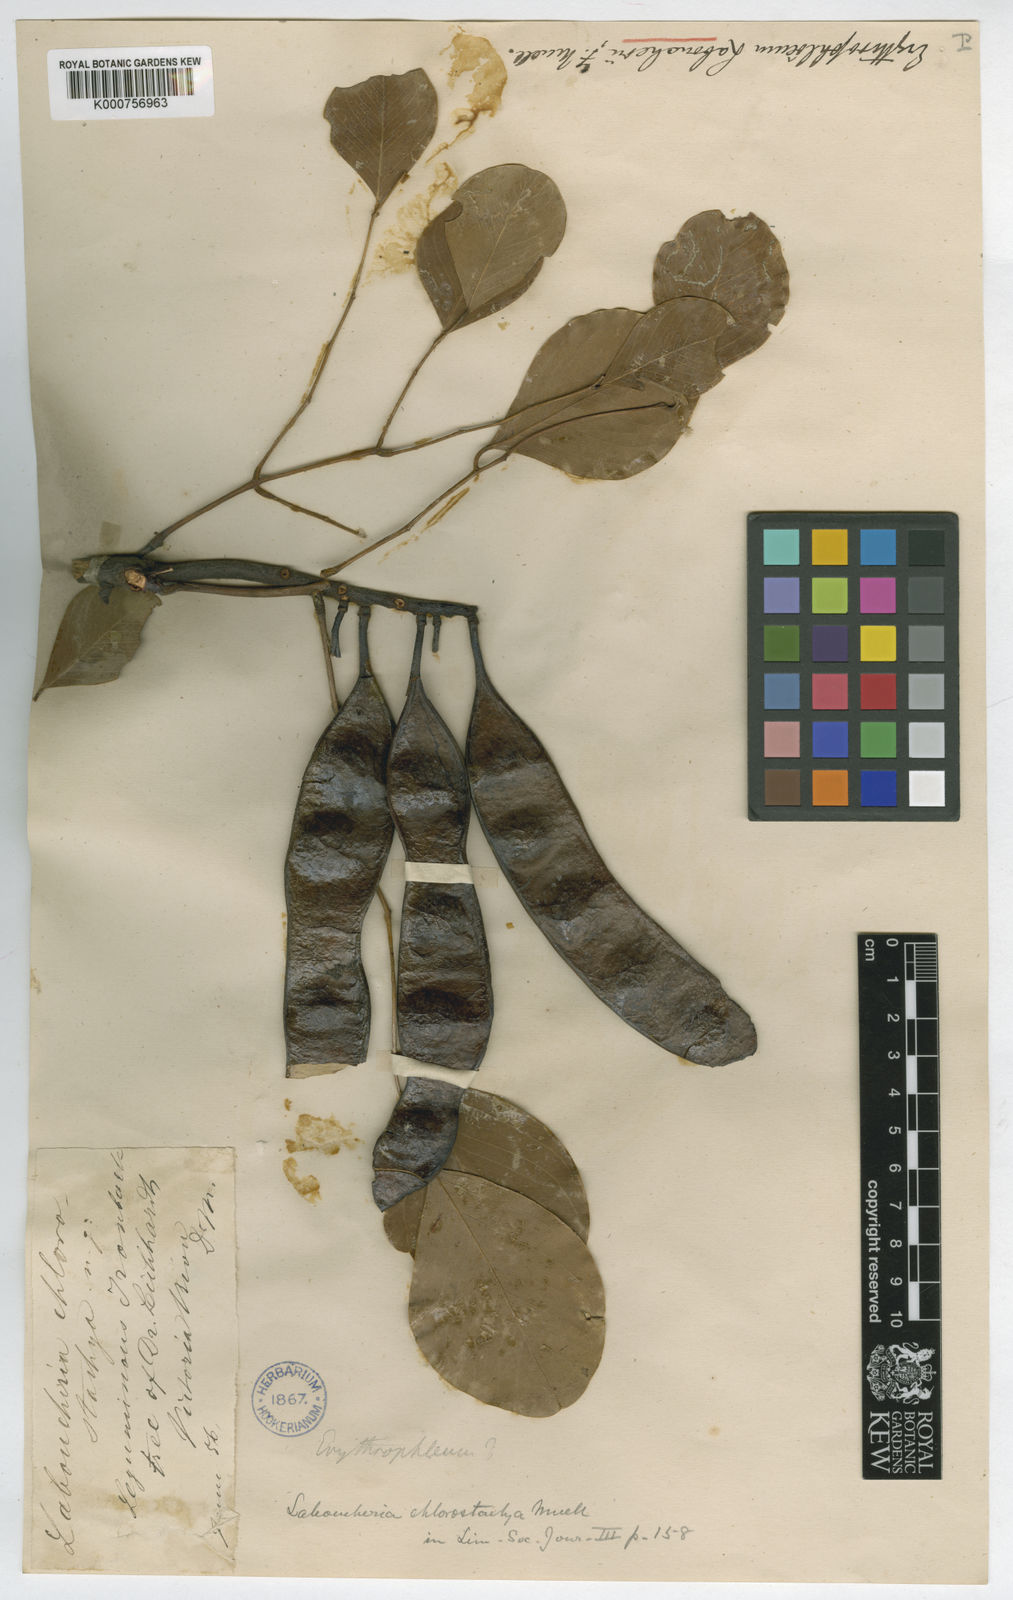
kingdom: Plantae
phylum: Tracheophyta
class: Magnoliopsida
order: Fabales
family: Fabaceae
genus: Erythrophleum
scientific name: Erythrophleum chlorostachys
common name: Black-bean
